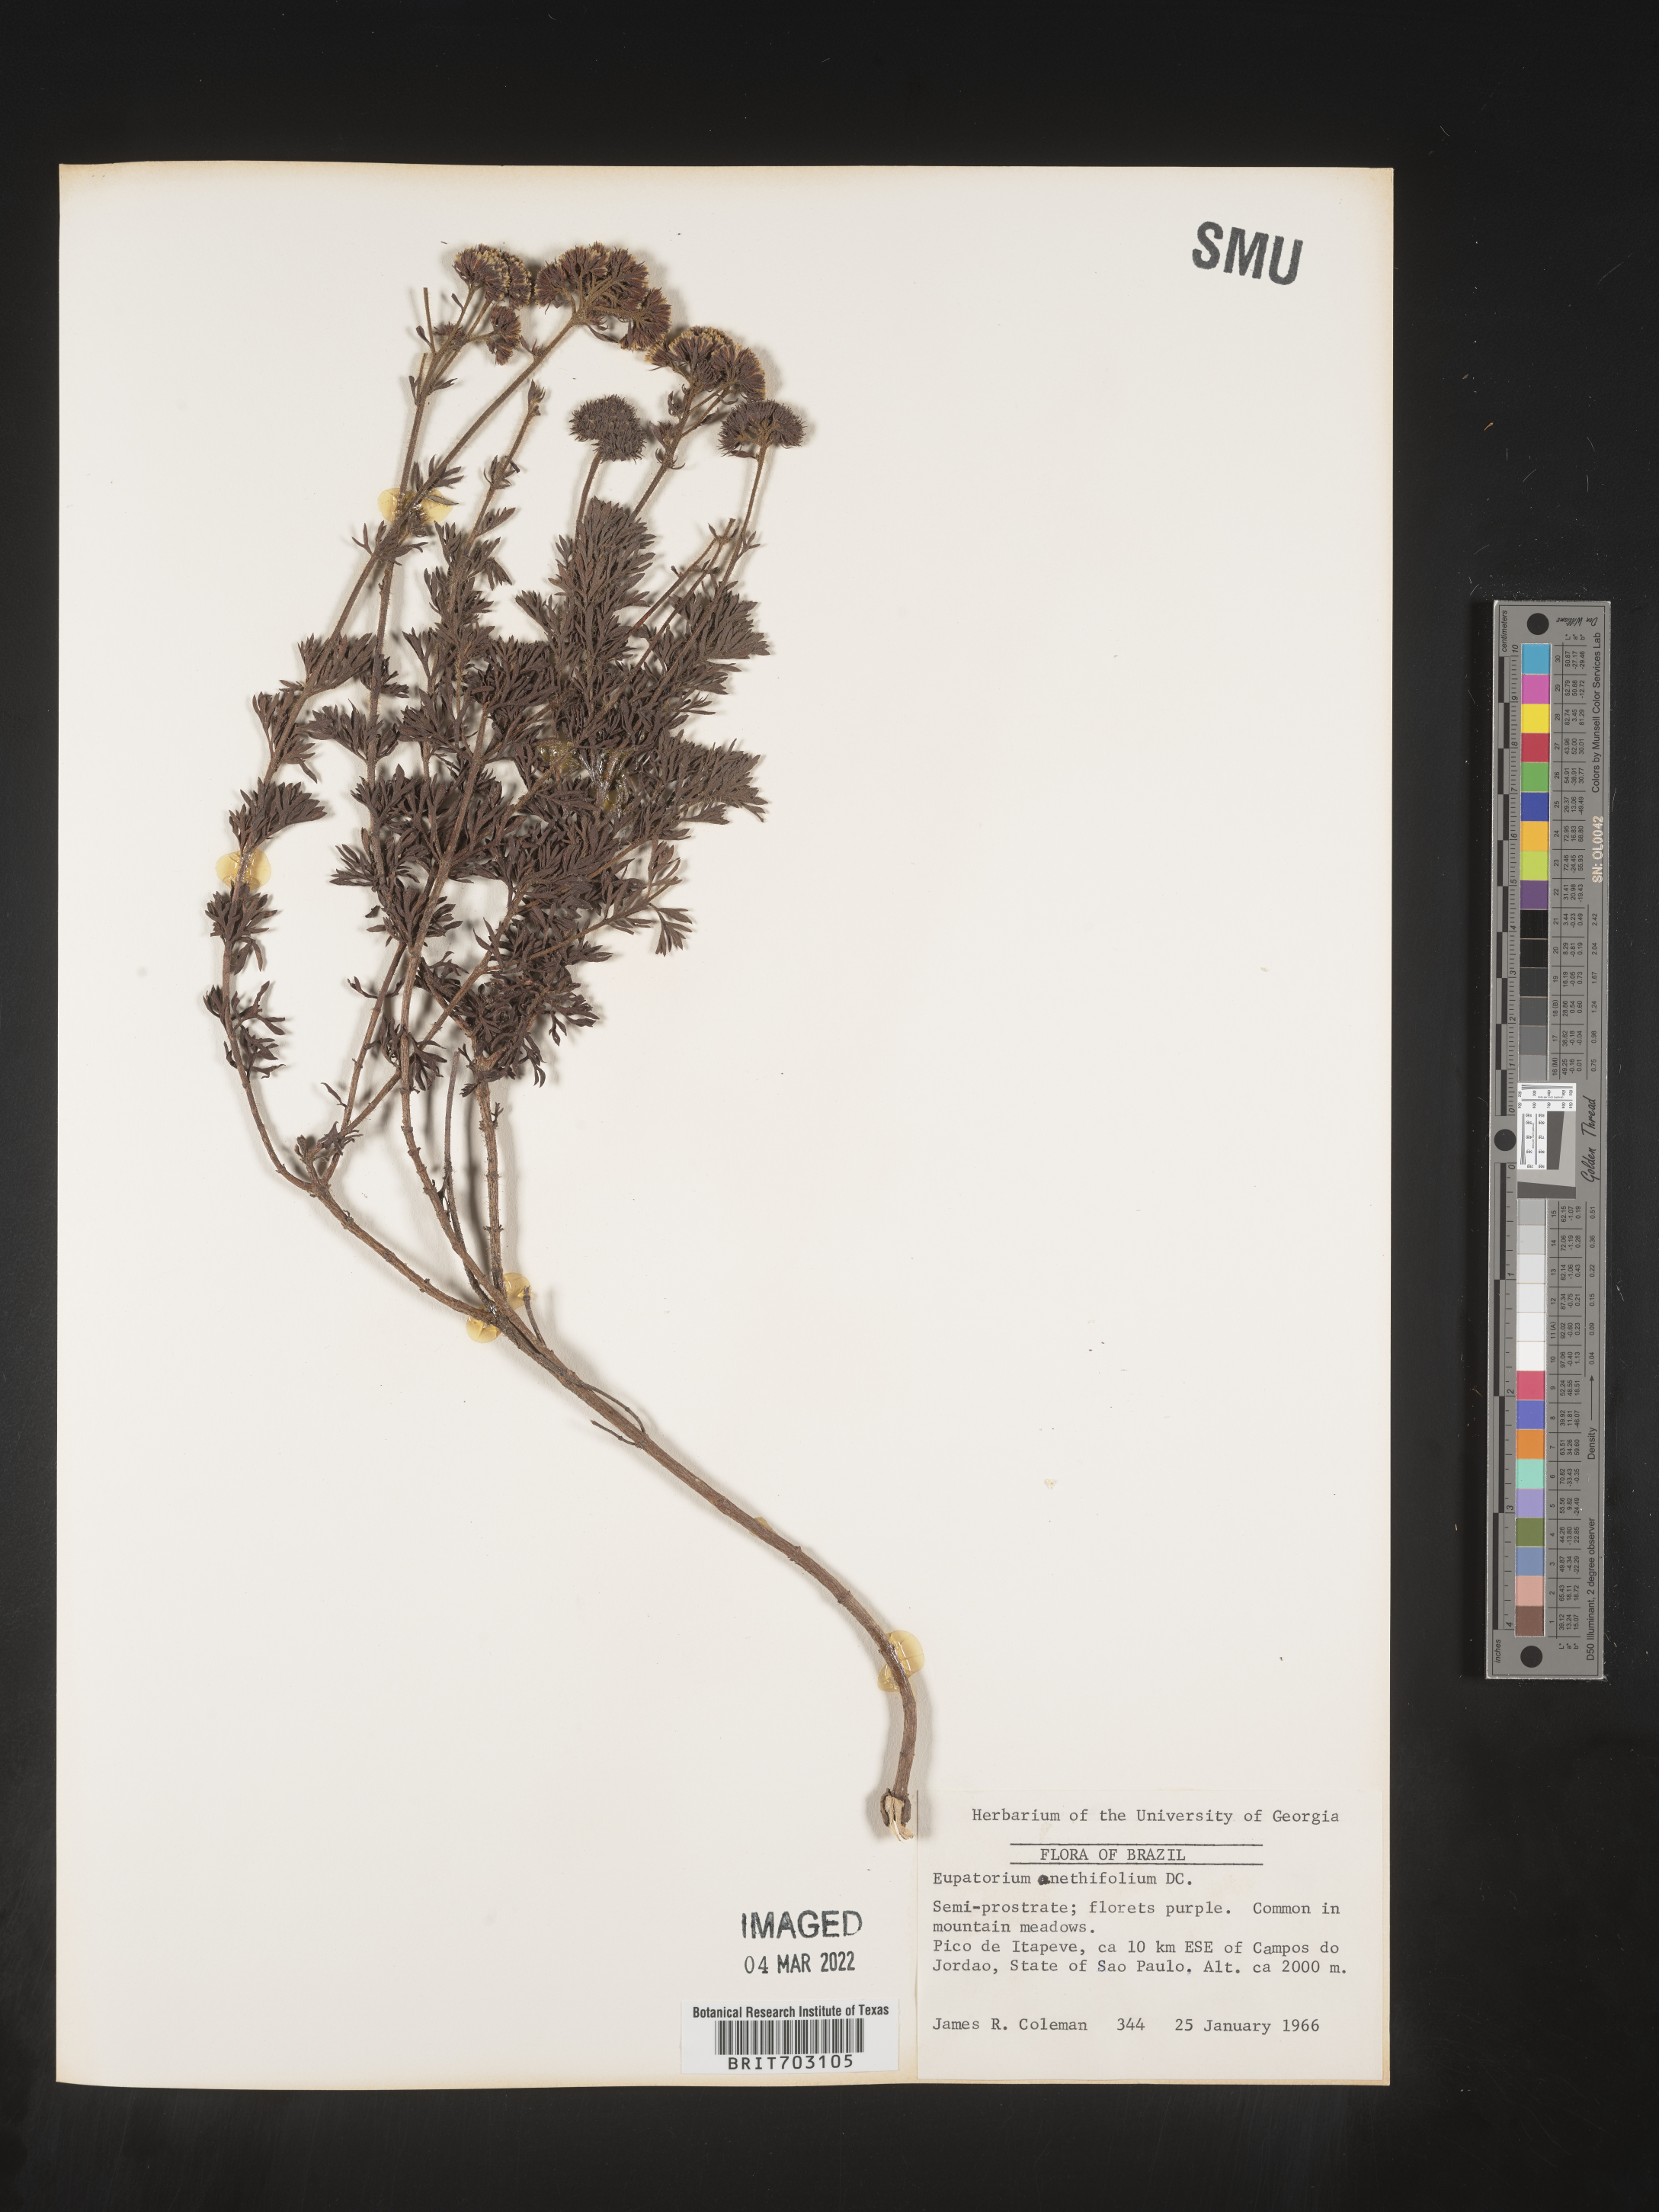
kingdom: Plantae
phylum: Tracheophyta
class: Magnoliopsida
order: Asterales
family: Asteraceae
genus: Eupatorium
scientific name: Eupatorium
